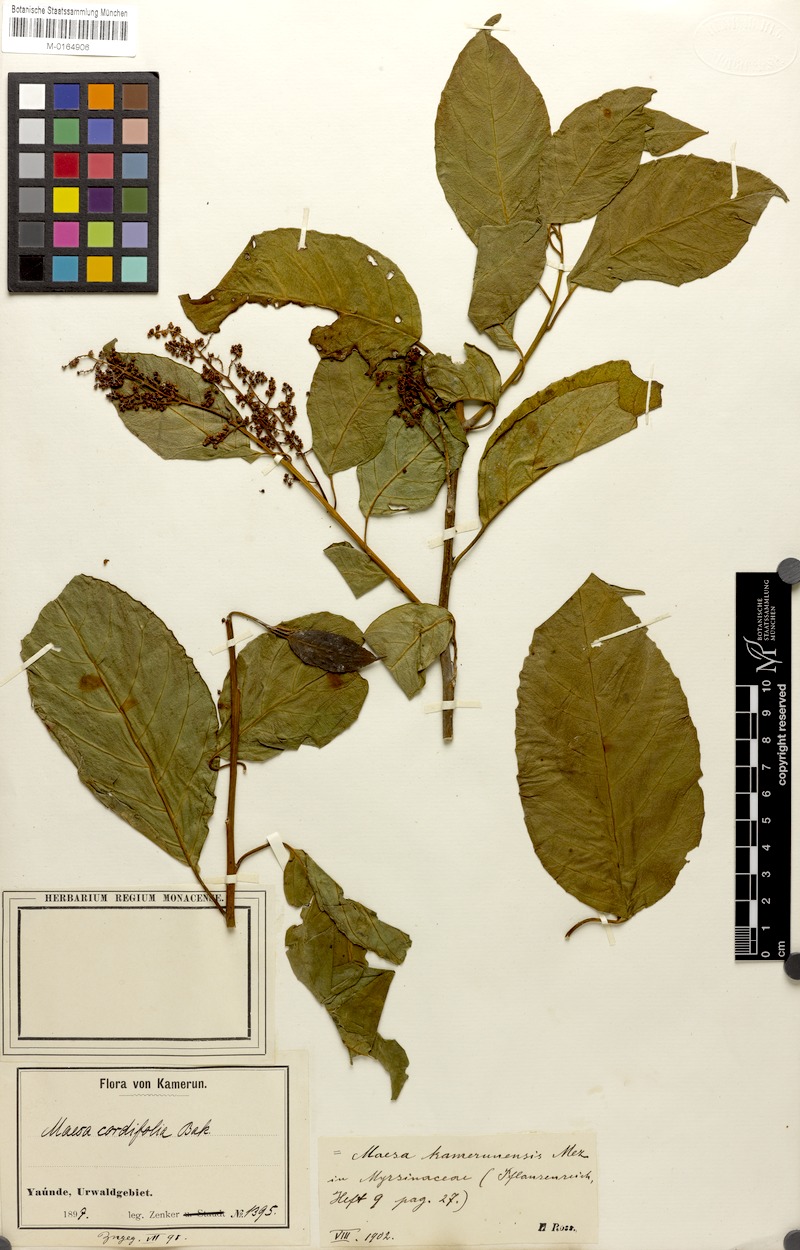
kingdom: Plantae
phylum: Tracheophyta
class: Magnoliopsida
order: Ericales
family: Primulaceae
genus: Maesa
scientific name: Maesa kamerunensis
